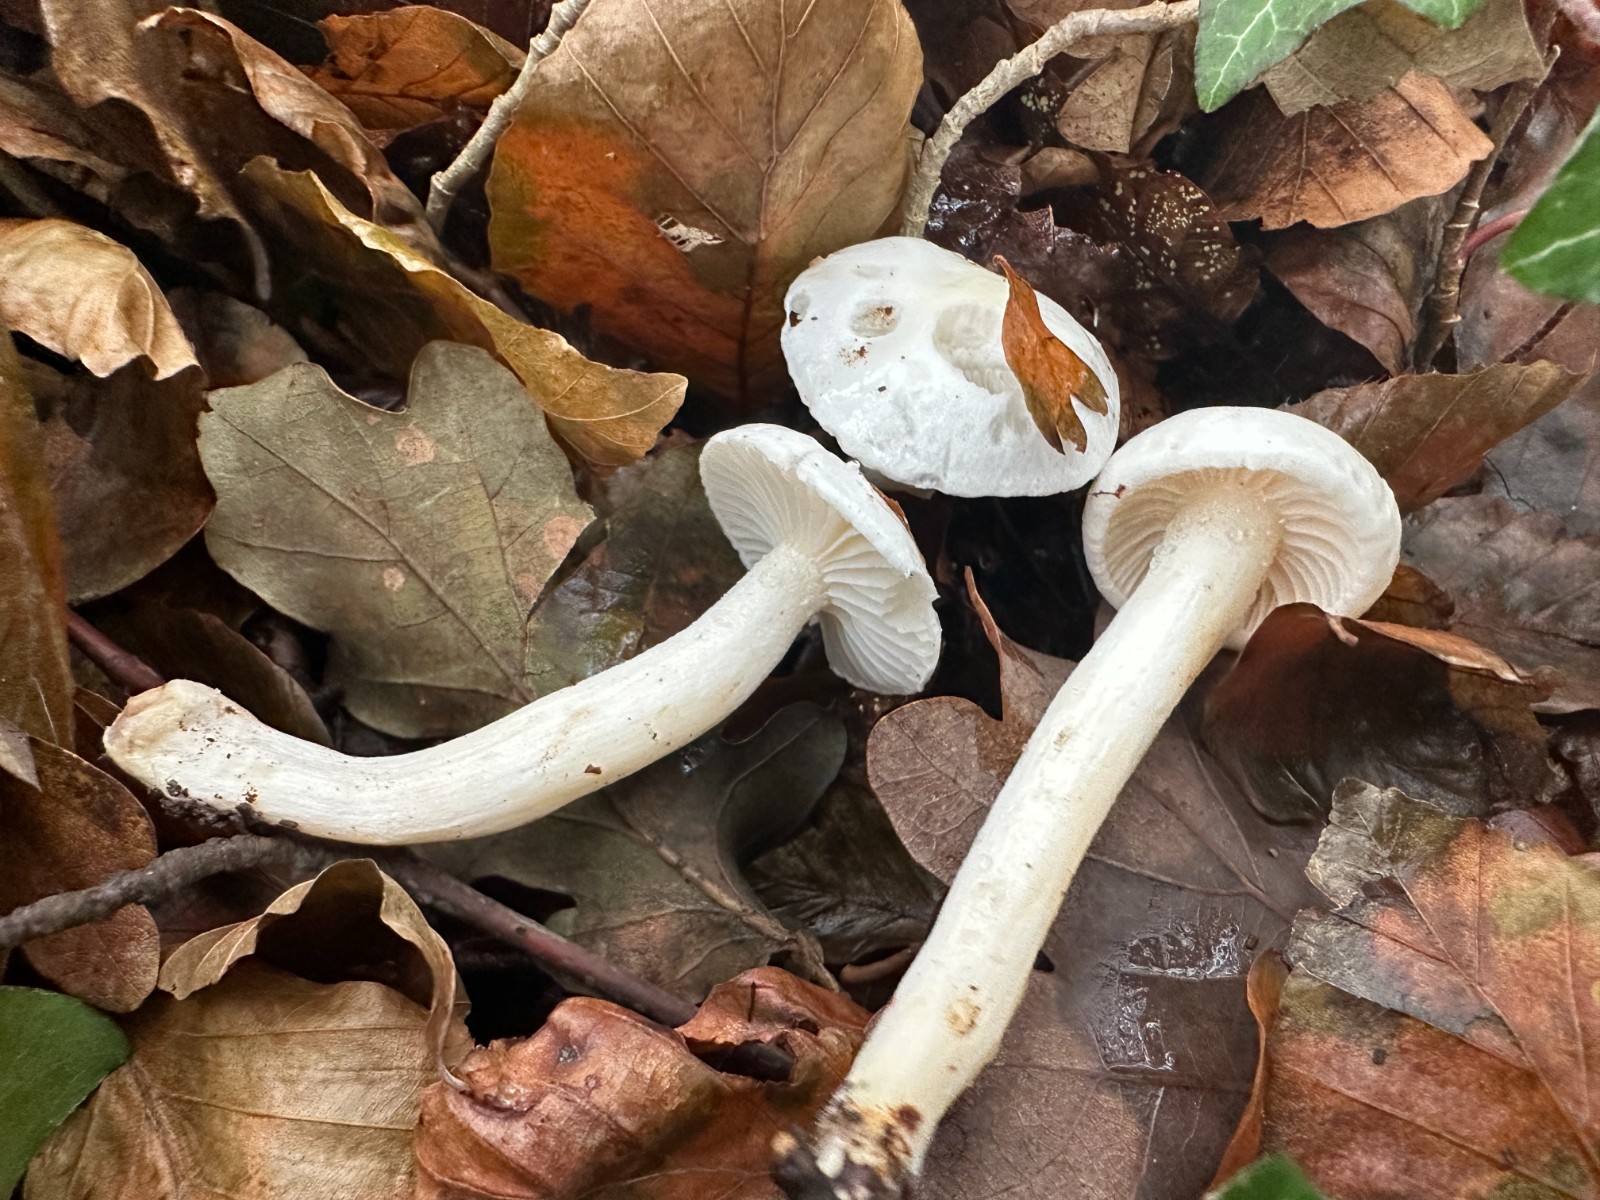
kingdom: Fungi
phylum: Basidiomycota
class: Agaricomycetes
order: Agaricales
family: Hygrophoraceae
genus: Hygrophorus
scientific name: Hygrophorus eburneus
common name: elfenbens-sneglehat
